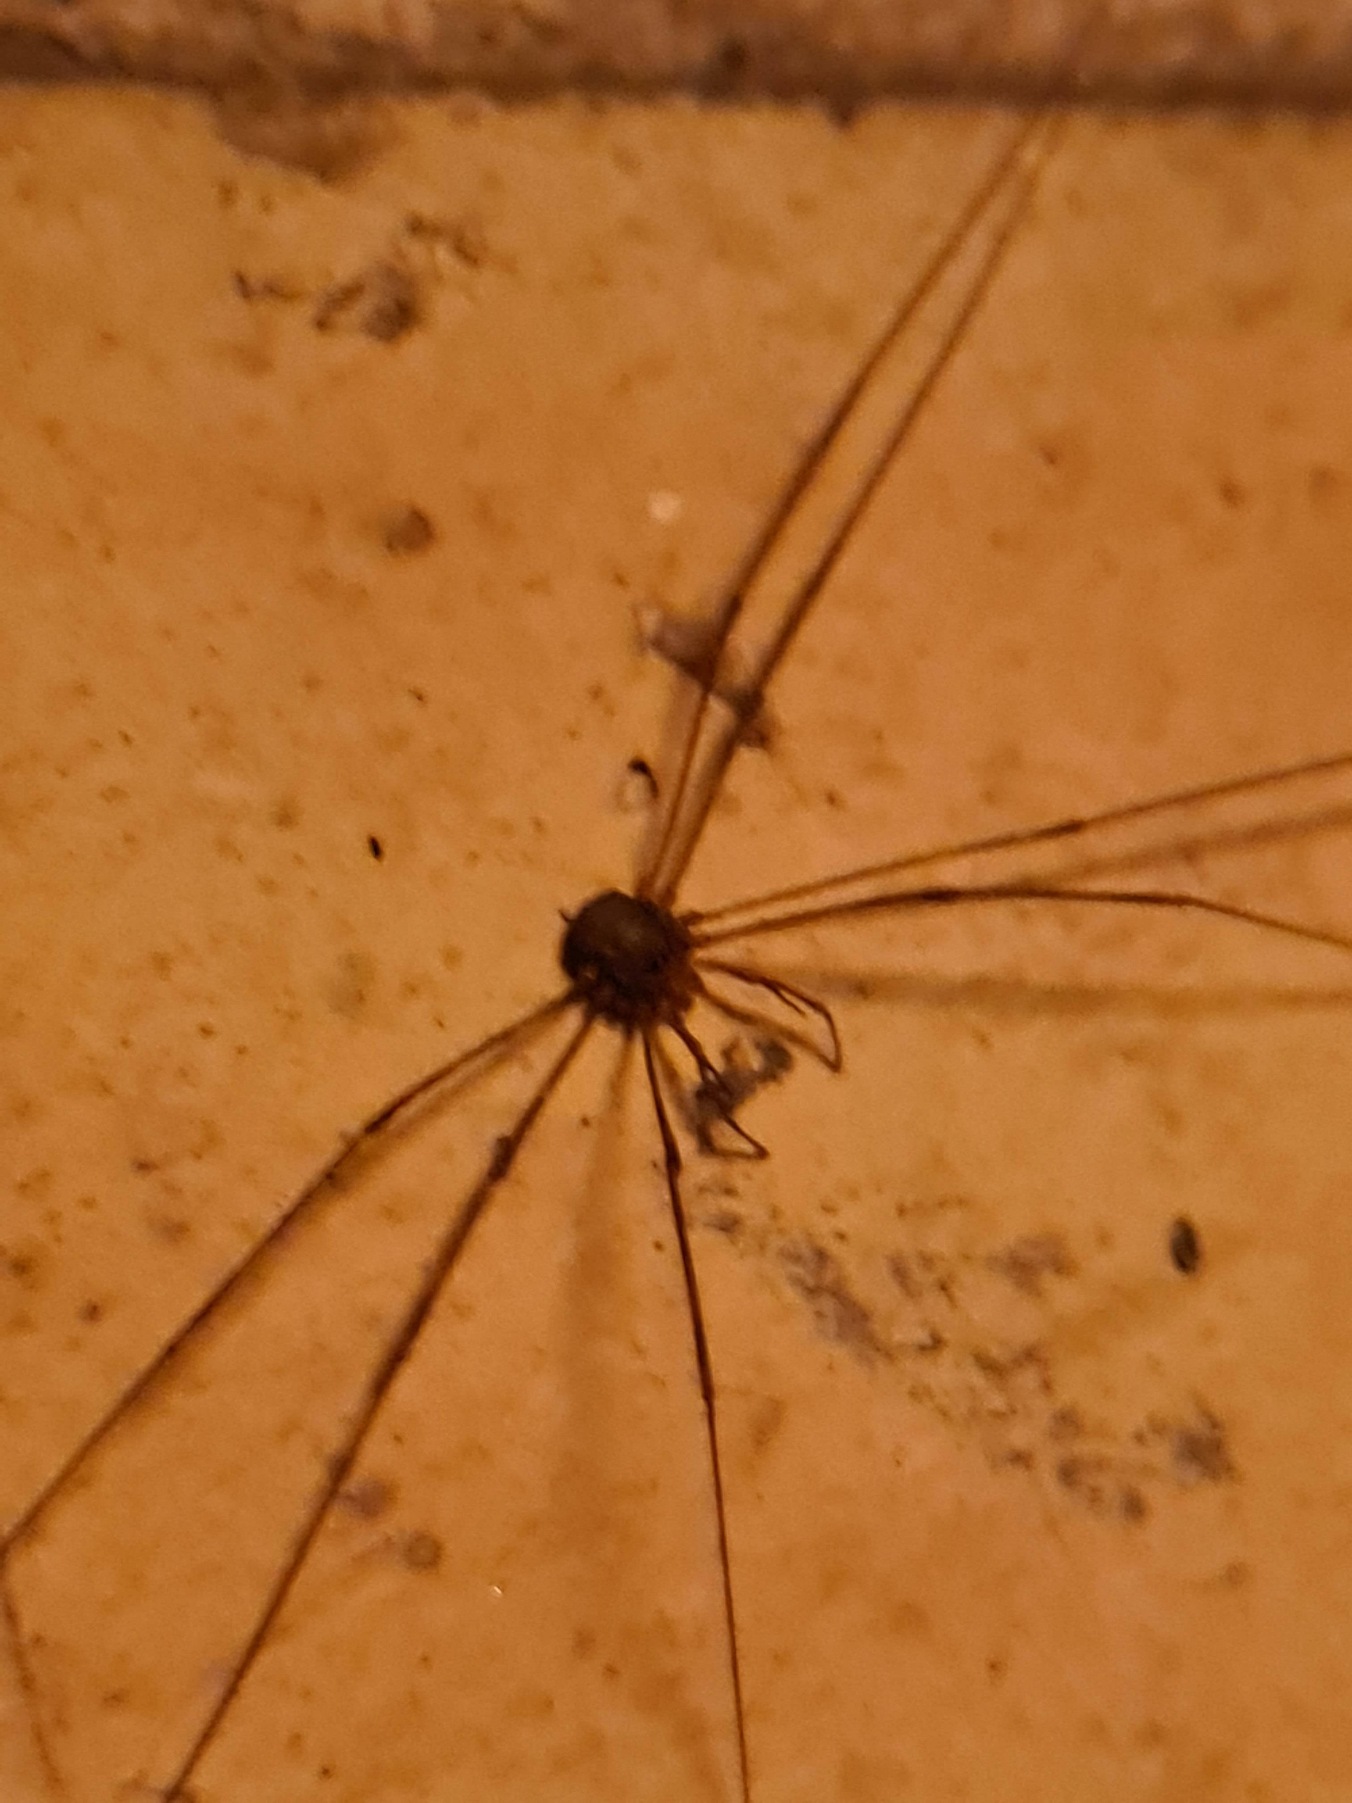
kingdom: Animalia
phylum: Arthropoda
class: Arachnida
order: Opiliones
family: Phalangiidae
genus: Dicranopalpus
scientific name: Dicranopalpus ramosus
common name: Gaffelmejer
